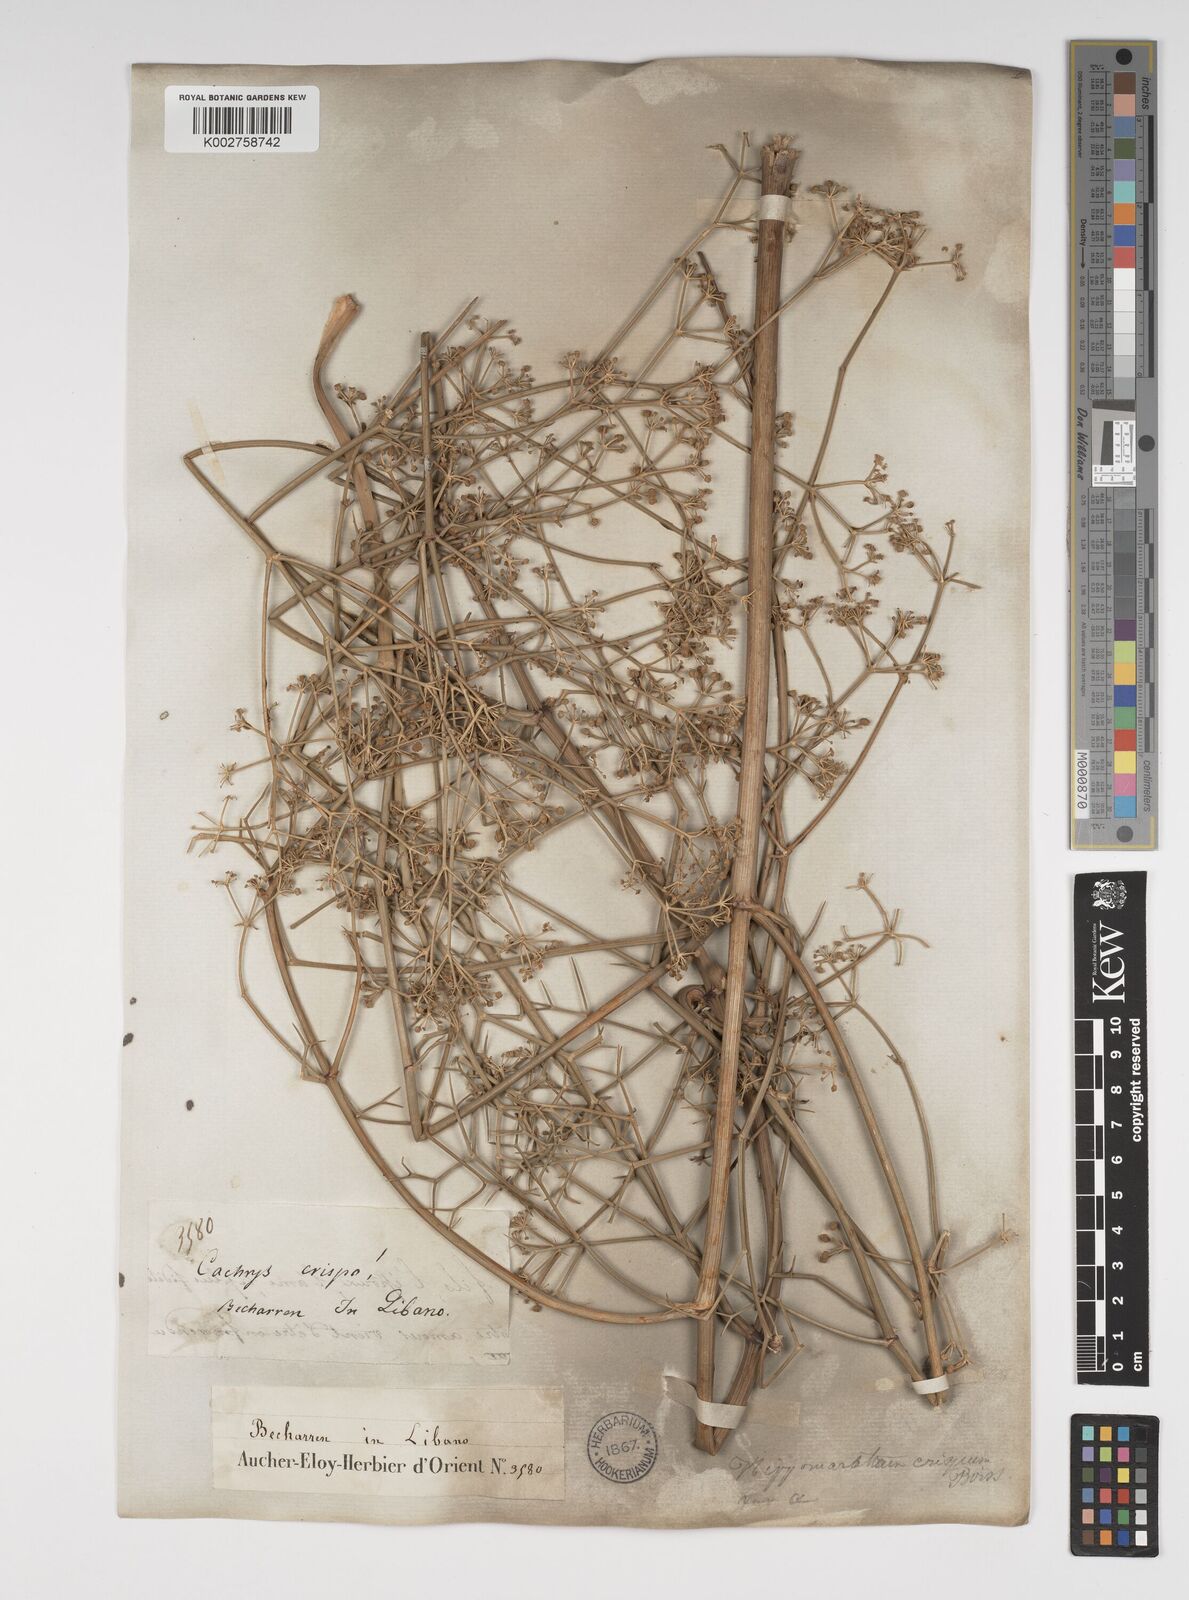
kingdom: Plantae
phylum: Tracheophyta
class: Magnoliopsida
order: Apiales
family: Apiaceae
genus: Cachrys
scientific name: Cachrys boissieri
